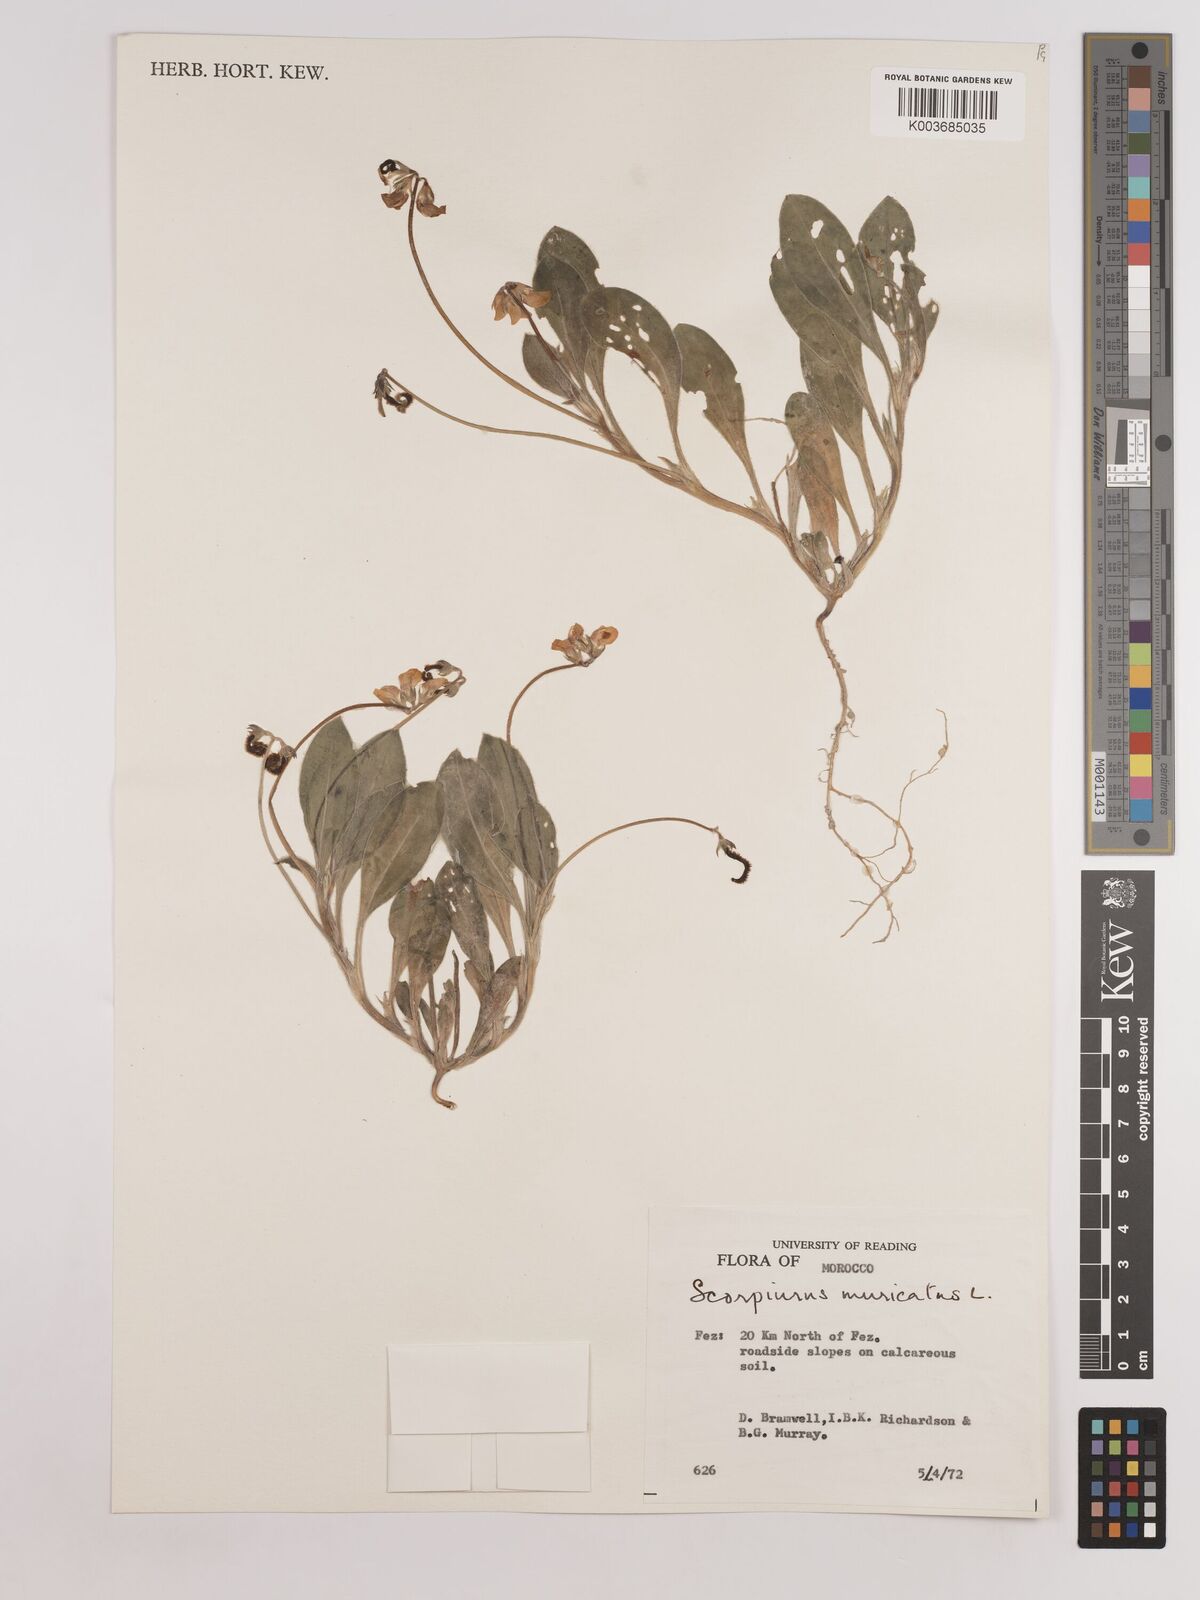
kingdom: Plantae
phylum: Tracheophyta
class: Magnoliopsida
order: Fabales
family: Fabaceae
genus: Scorpiurus
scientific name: Scorpiurus muricatus
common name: Caterpillar-plant
